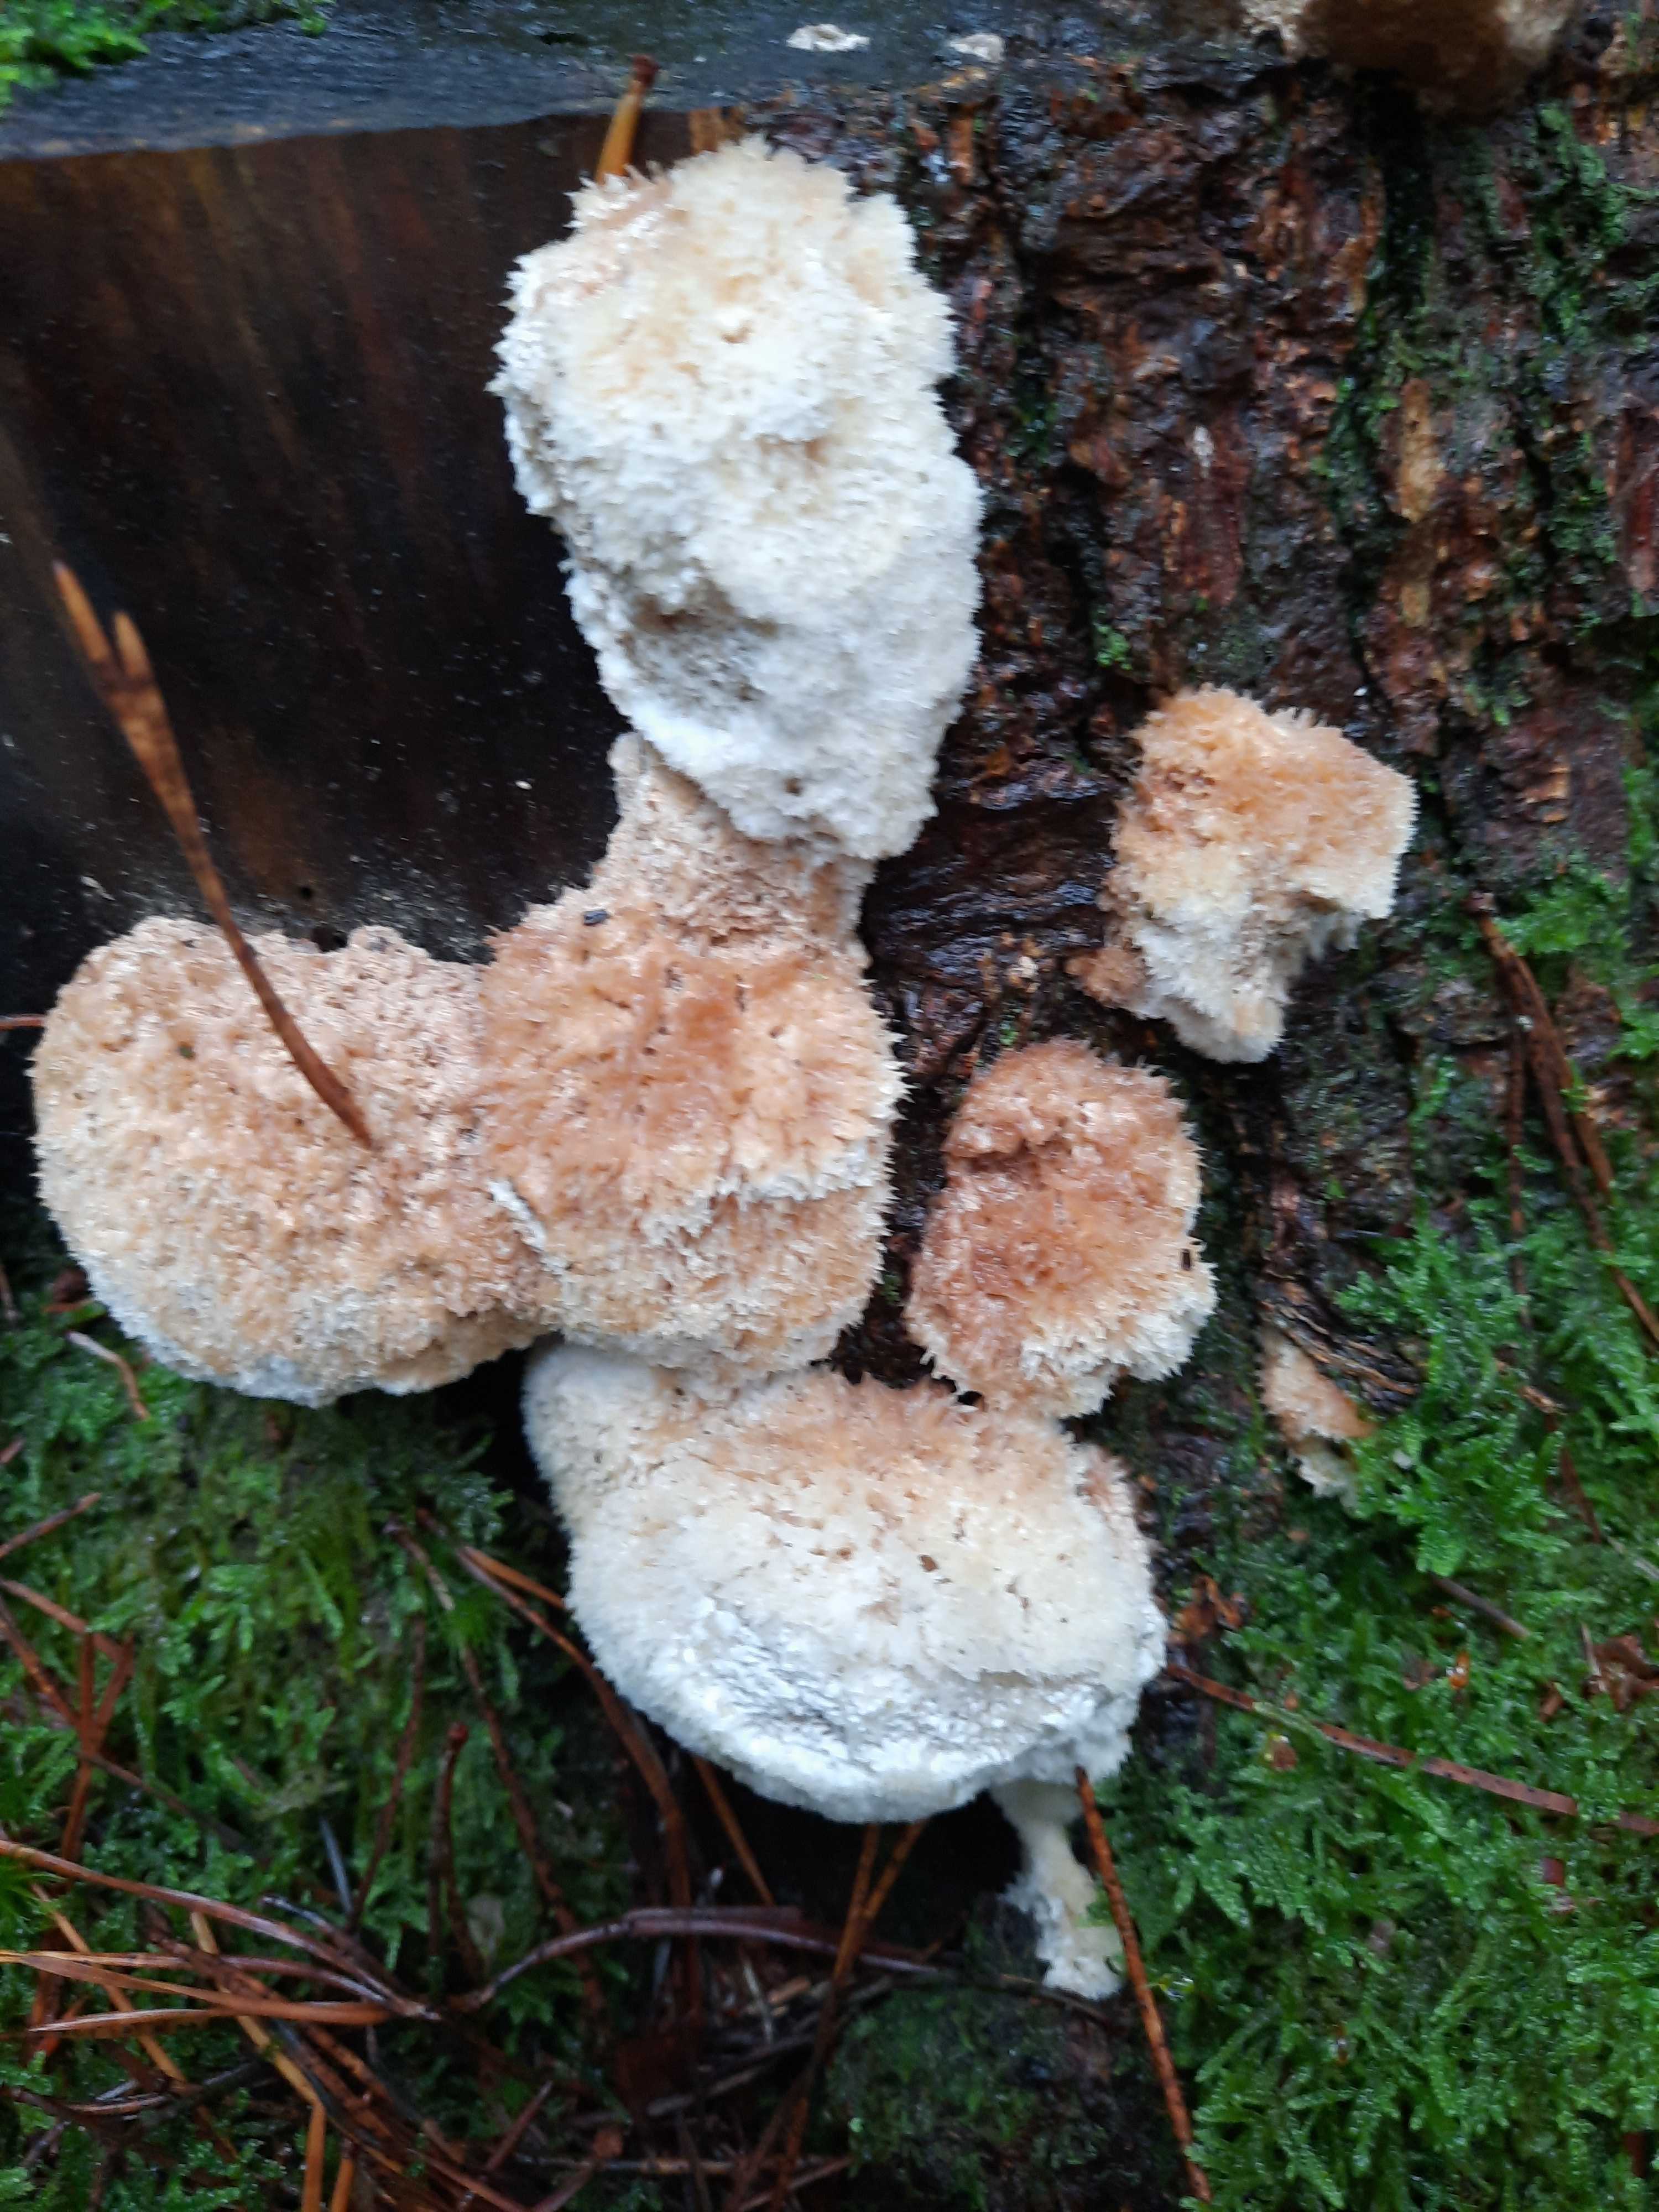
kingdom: Fungi
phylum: Basidiomycota
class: Agaricomycetes
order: Polyporales
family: Dacryobolaceae
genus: Postia
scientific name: Postia ptychogaster
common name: støvende kødporesvamp
